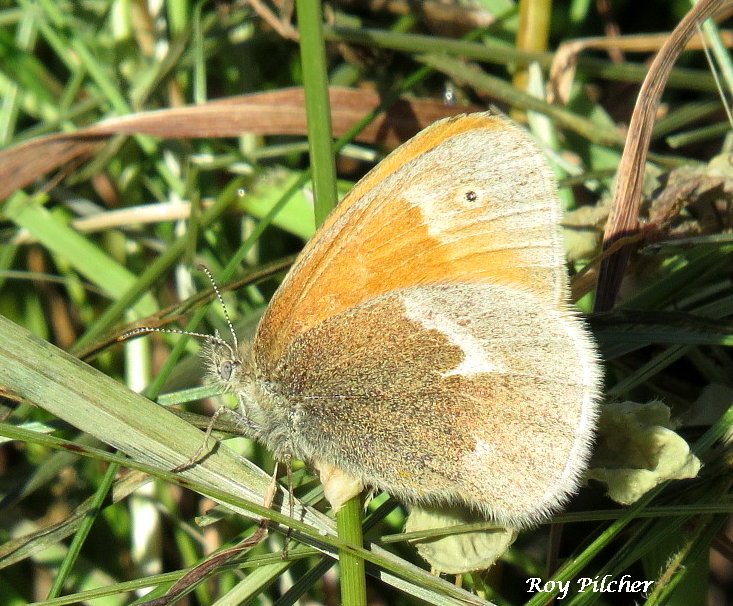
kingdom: Animalia
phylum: Arthropoda
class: Insecta
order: Lepidoptera
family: Nymphalidae
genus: Coenonympha
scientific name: Coenonympha tullia
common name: Large Heath
